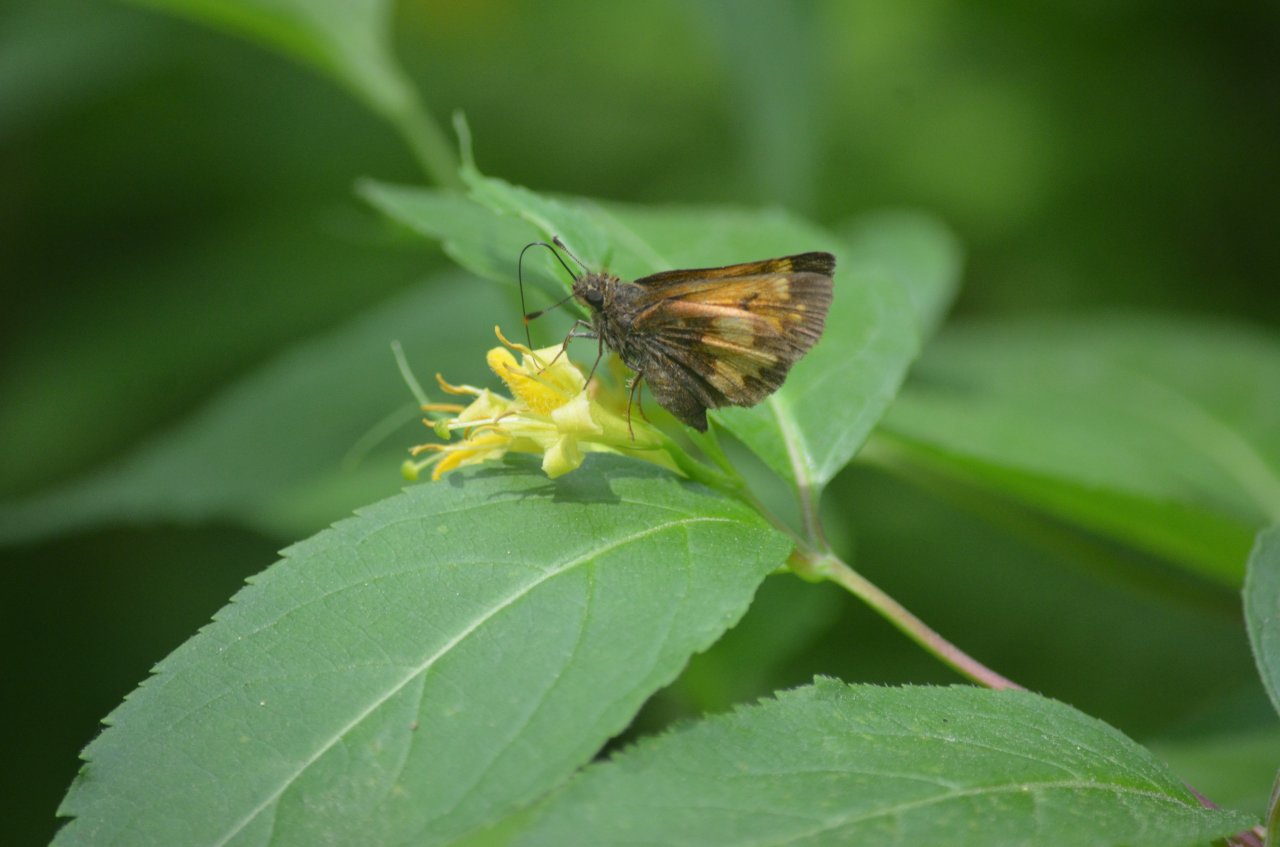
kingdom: Animalia
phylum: Arthropoda
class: Insecta
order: Lepidoptera
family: Hesperiidae
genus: Lon
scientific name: Lon hobomok
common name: Hobomok Skipper
